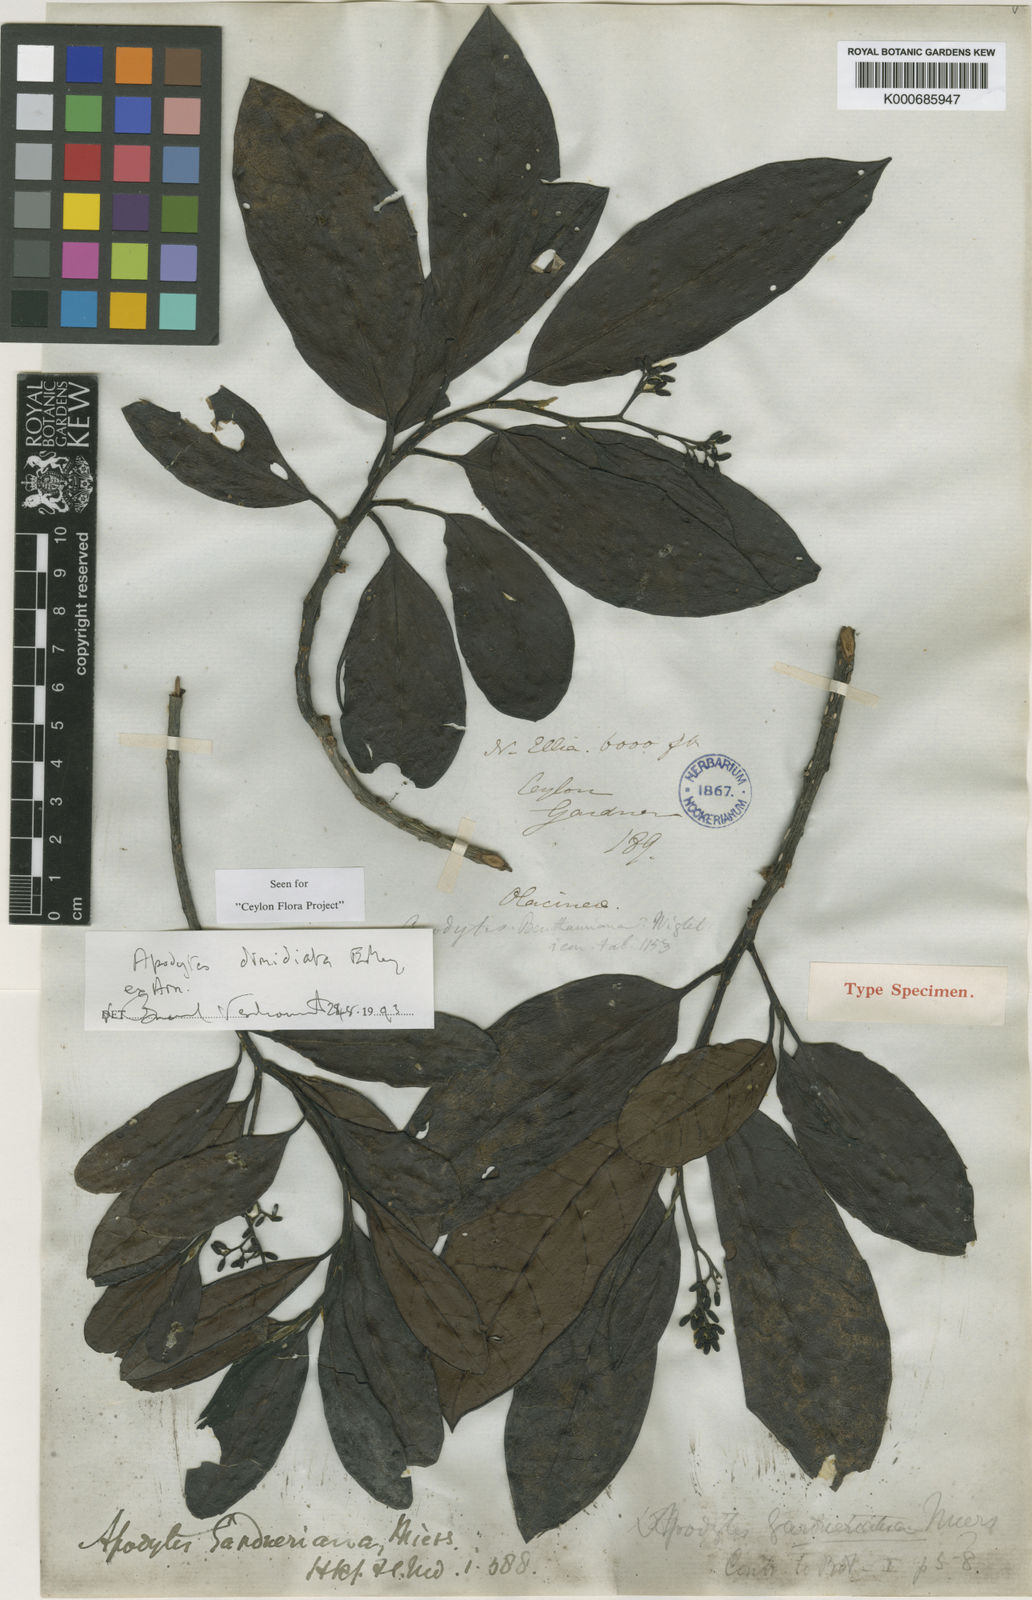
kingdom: Plantae
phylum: Tracheophyta
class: Magnoliopsida
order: Metteniusales
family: Metteniusaceae
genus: Apodytes
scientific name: Apodytes dimidiata
